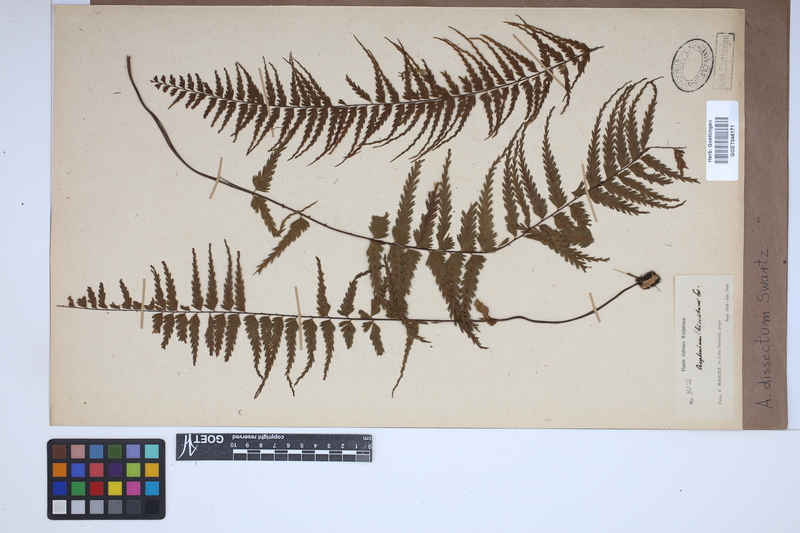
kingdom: Plantae
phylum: Tracheophyta
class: Polypodiopsida
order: Polypodiales
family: Aspleniaceae
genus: Asplenium
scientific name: Asplenium dissectum
